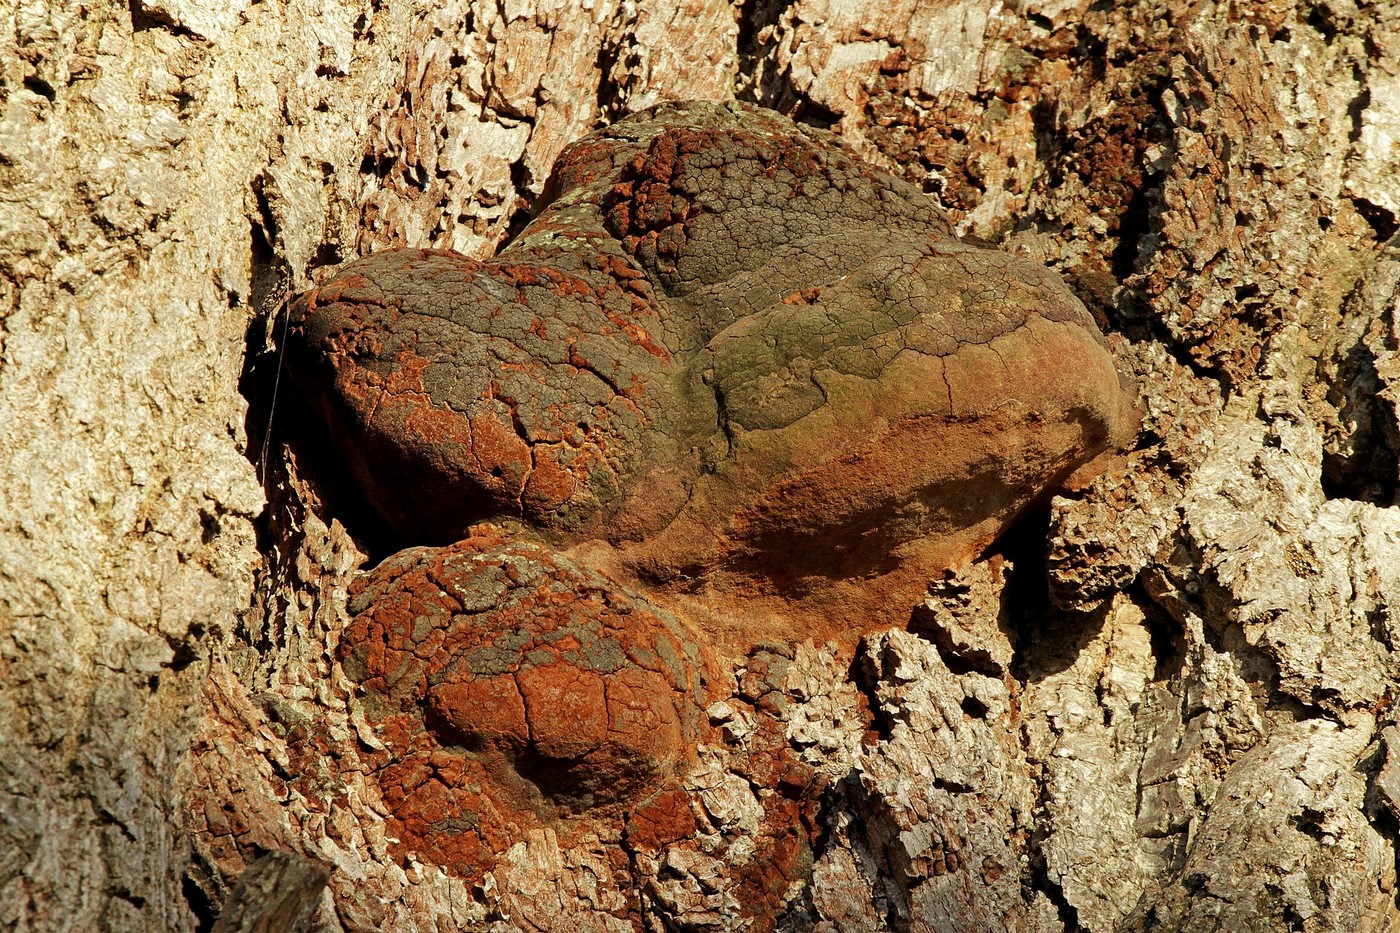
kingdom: Fungi
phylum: Basidiomycota
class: Agaricomycetes
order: Hymenochaetales
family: Hymenochaetaceae
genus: Fomitiporia
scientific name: Fomitiporia robusta
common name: ege-ildporesvamp
